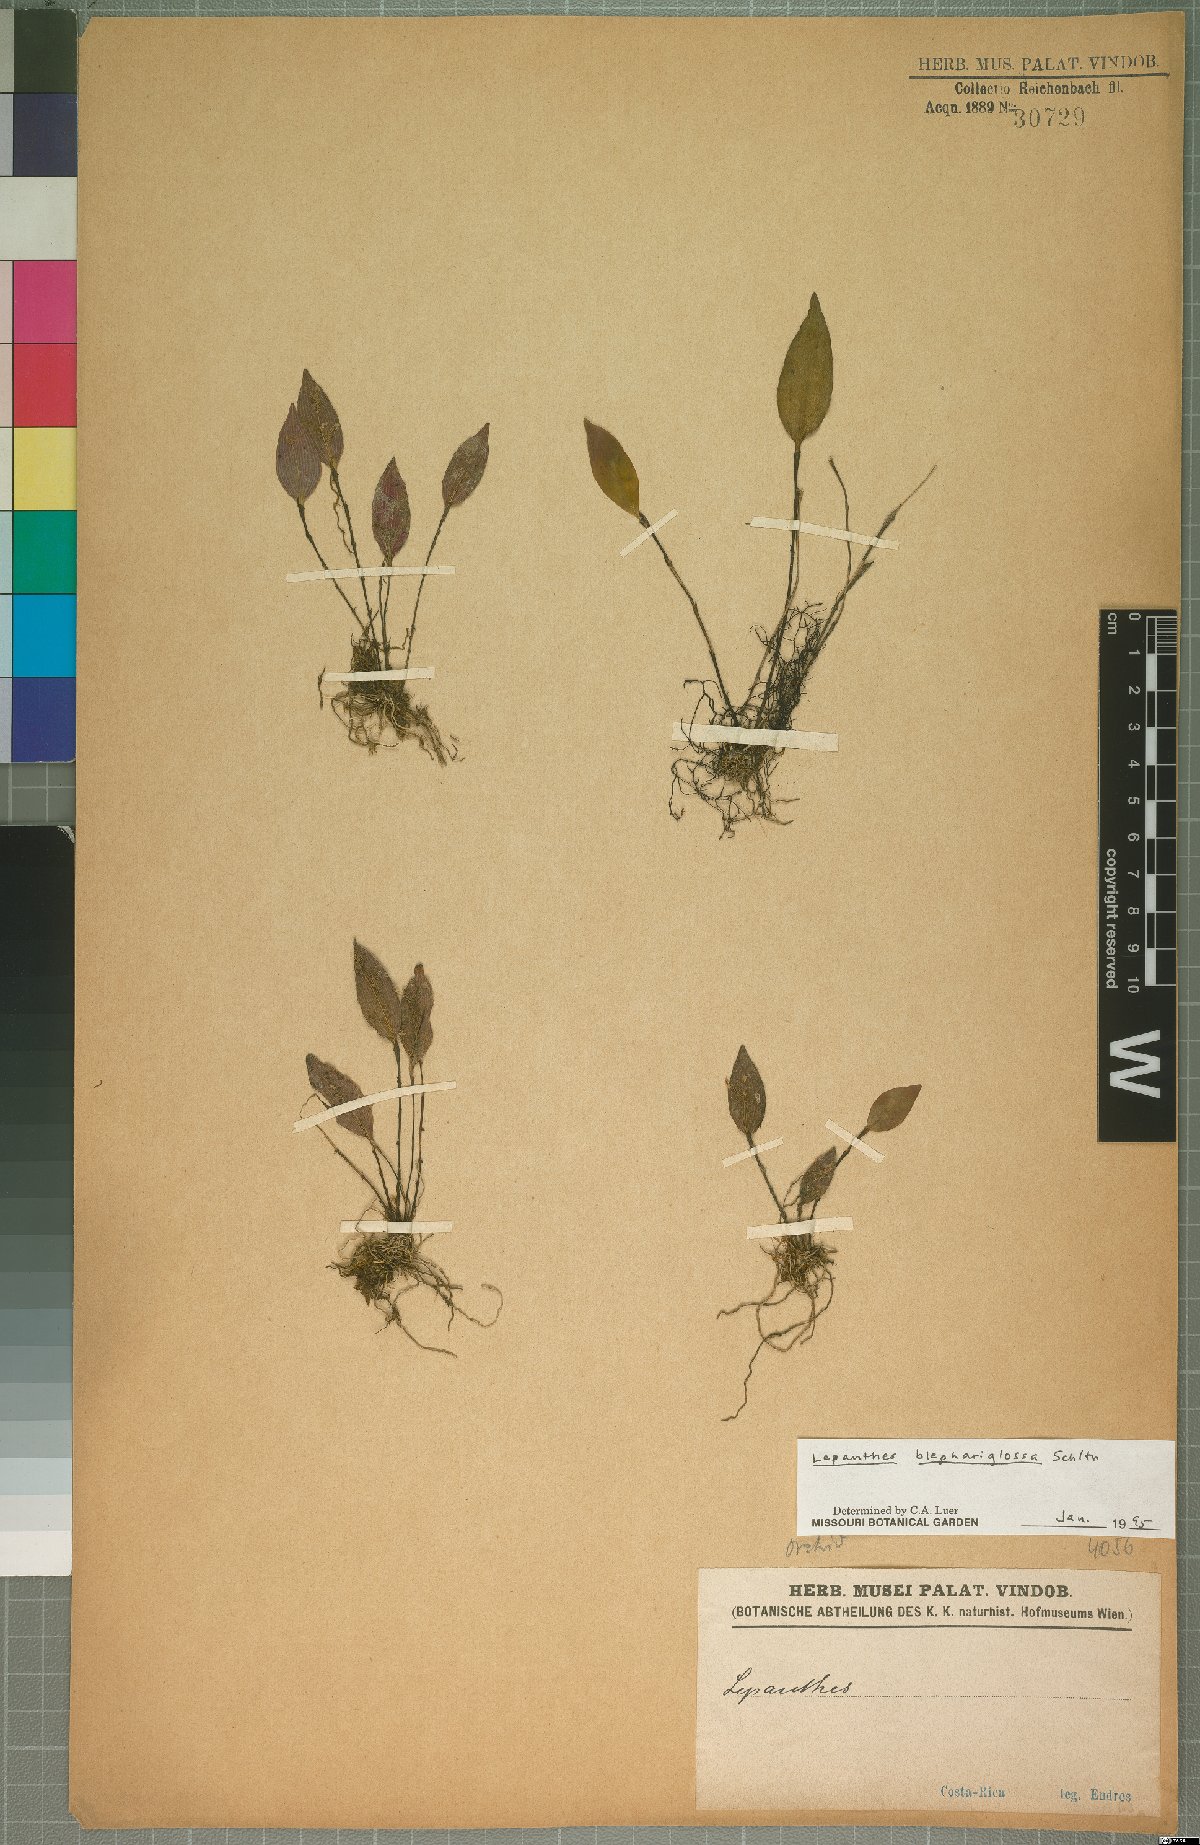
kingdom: Plantae
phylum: Tracheophyta
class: Liliopsida
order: Asparagales
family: Orchidaceae
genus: Lepanthes
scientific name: Lepanthes blephariglossa
